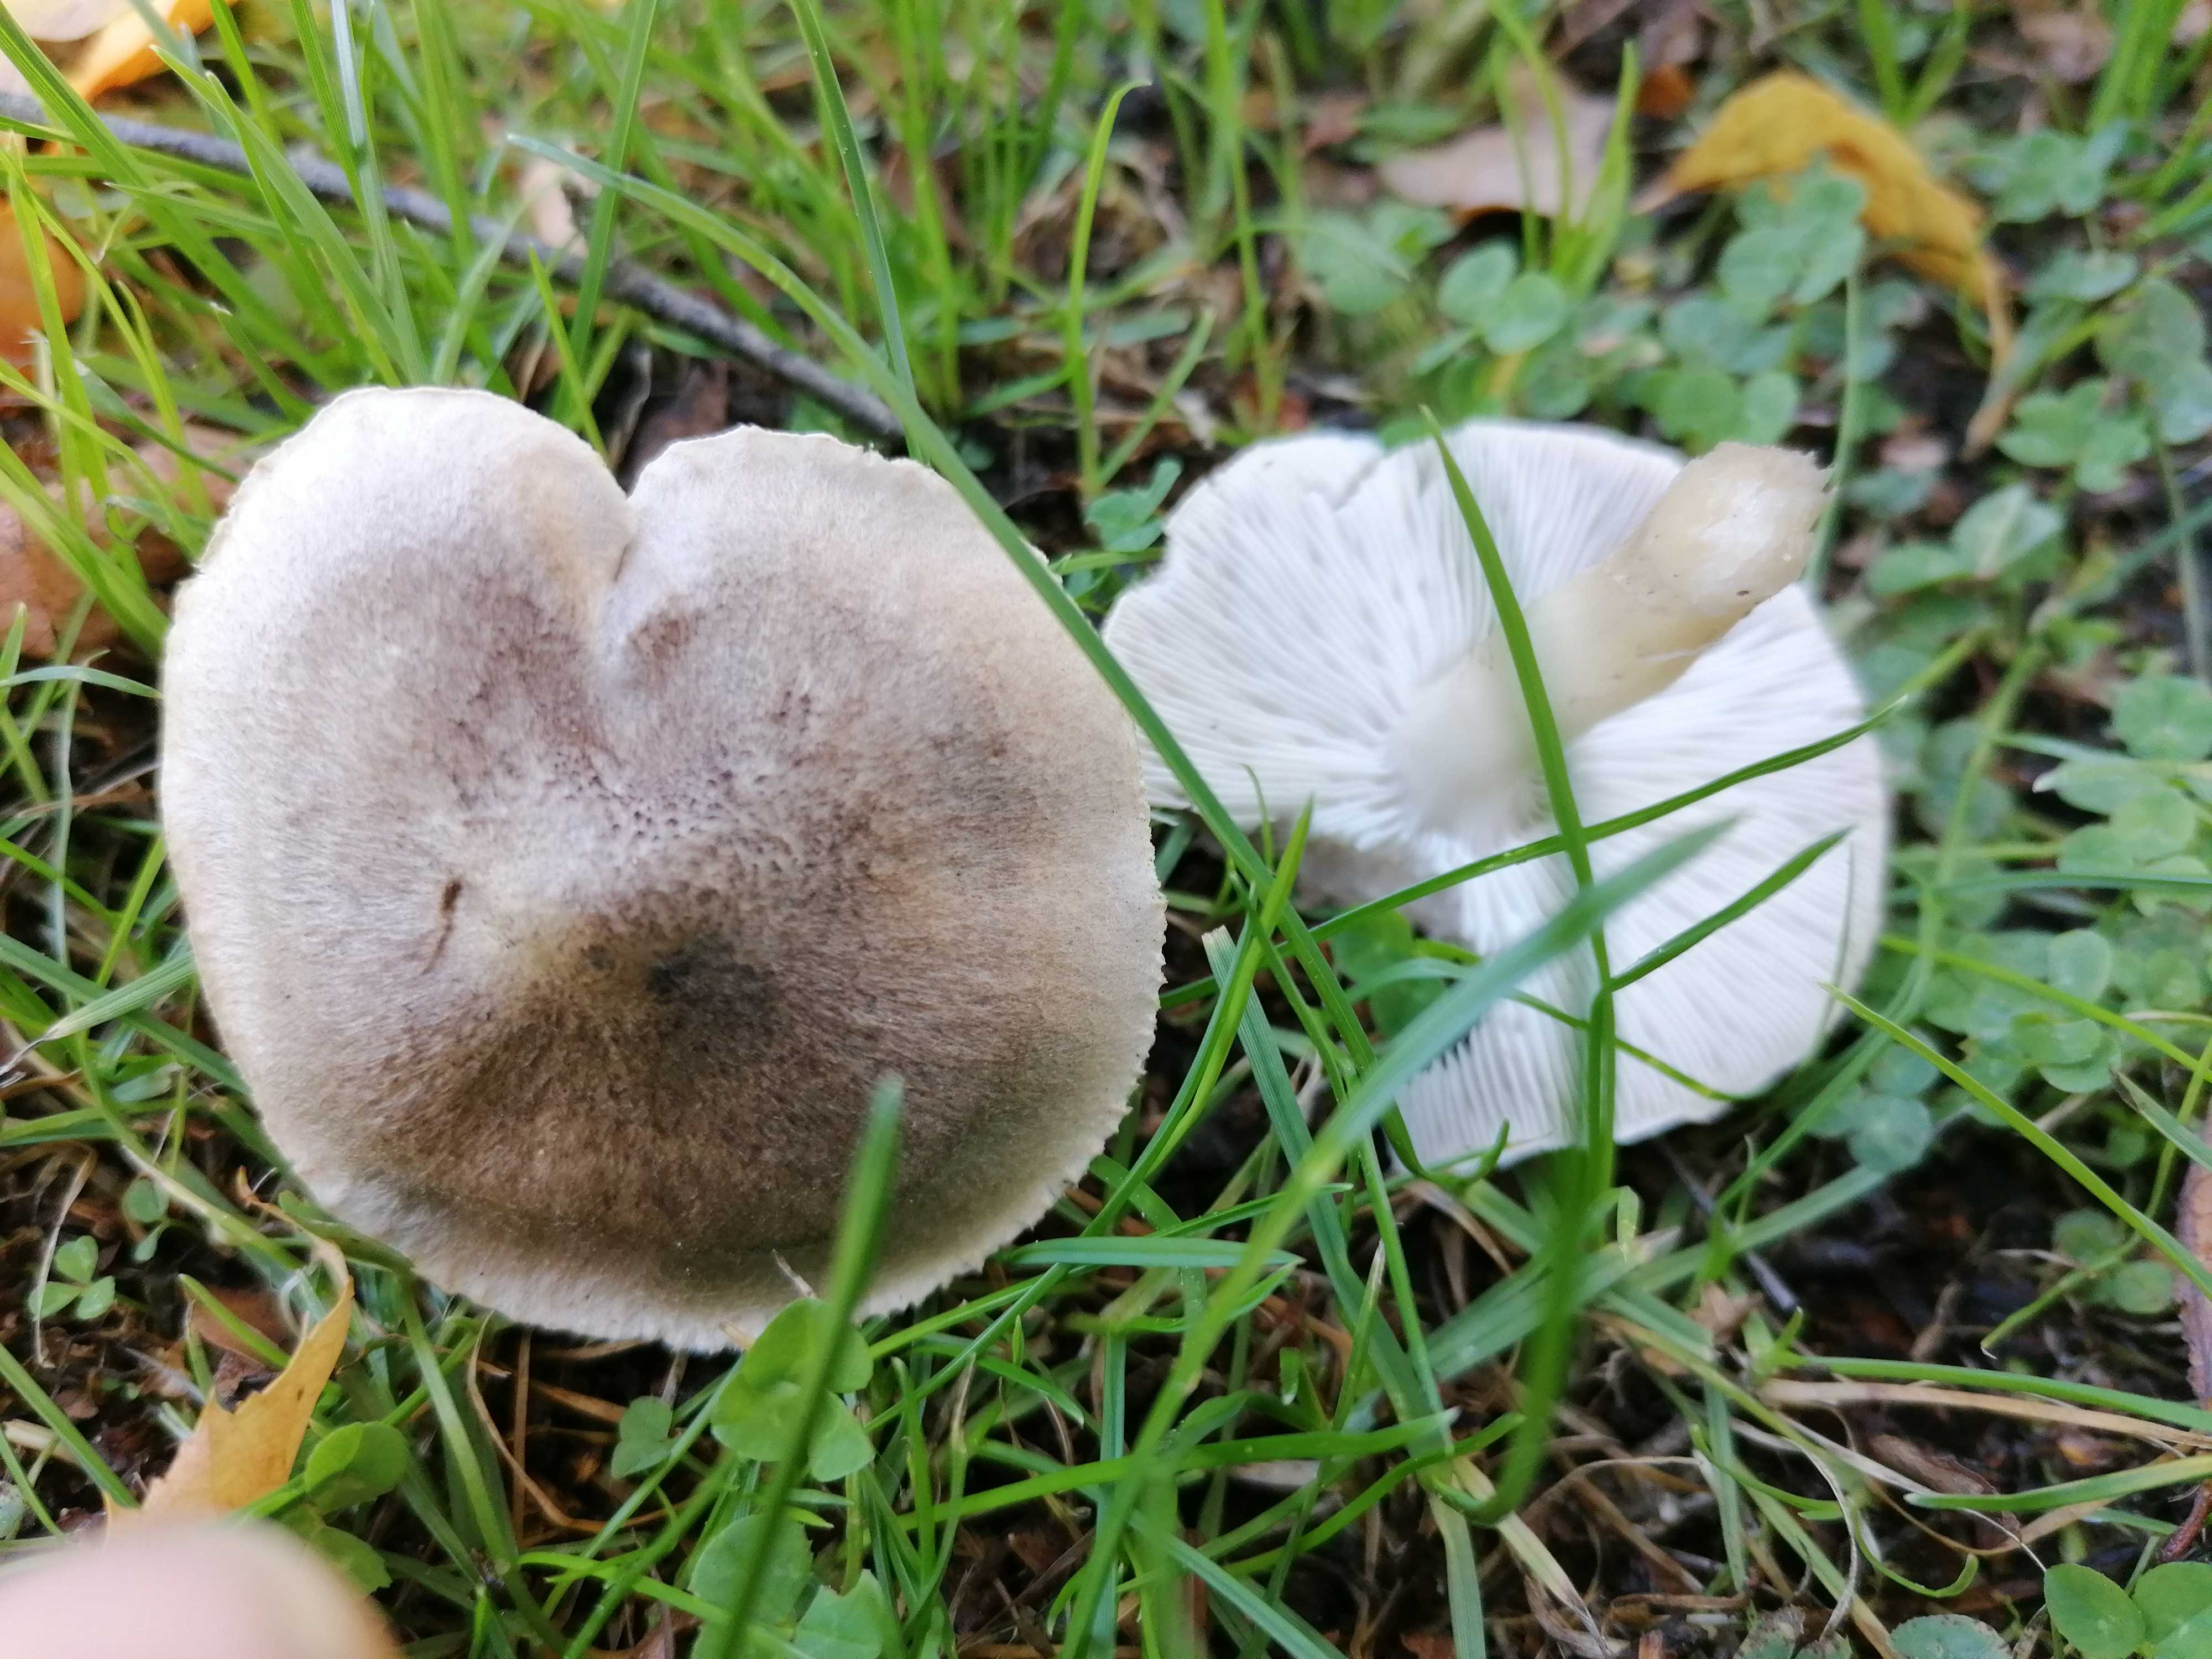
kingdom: Fungi
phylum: Basidiomycota
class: Agaricomycetes
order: Agaricales
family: Tricholomataceae
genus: Tricholoma
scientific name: Tricholoma
